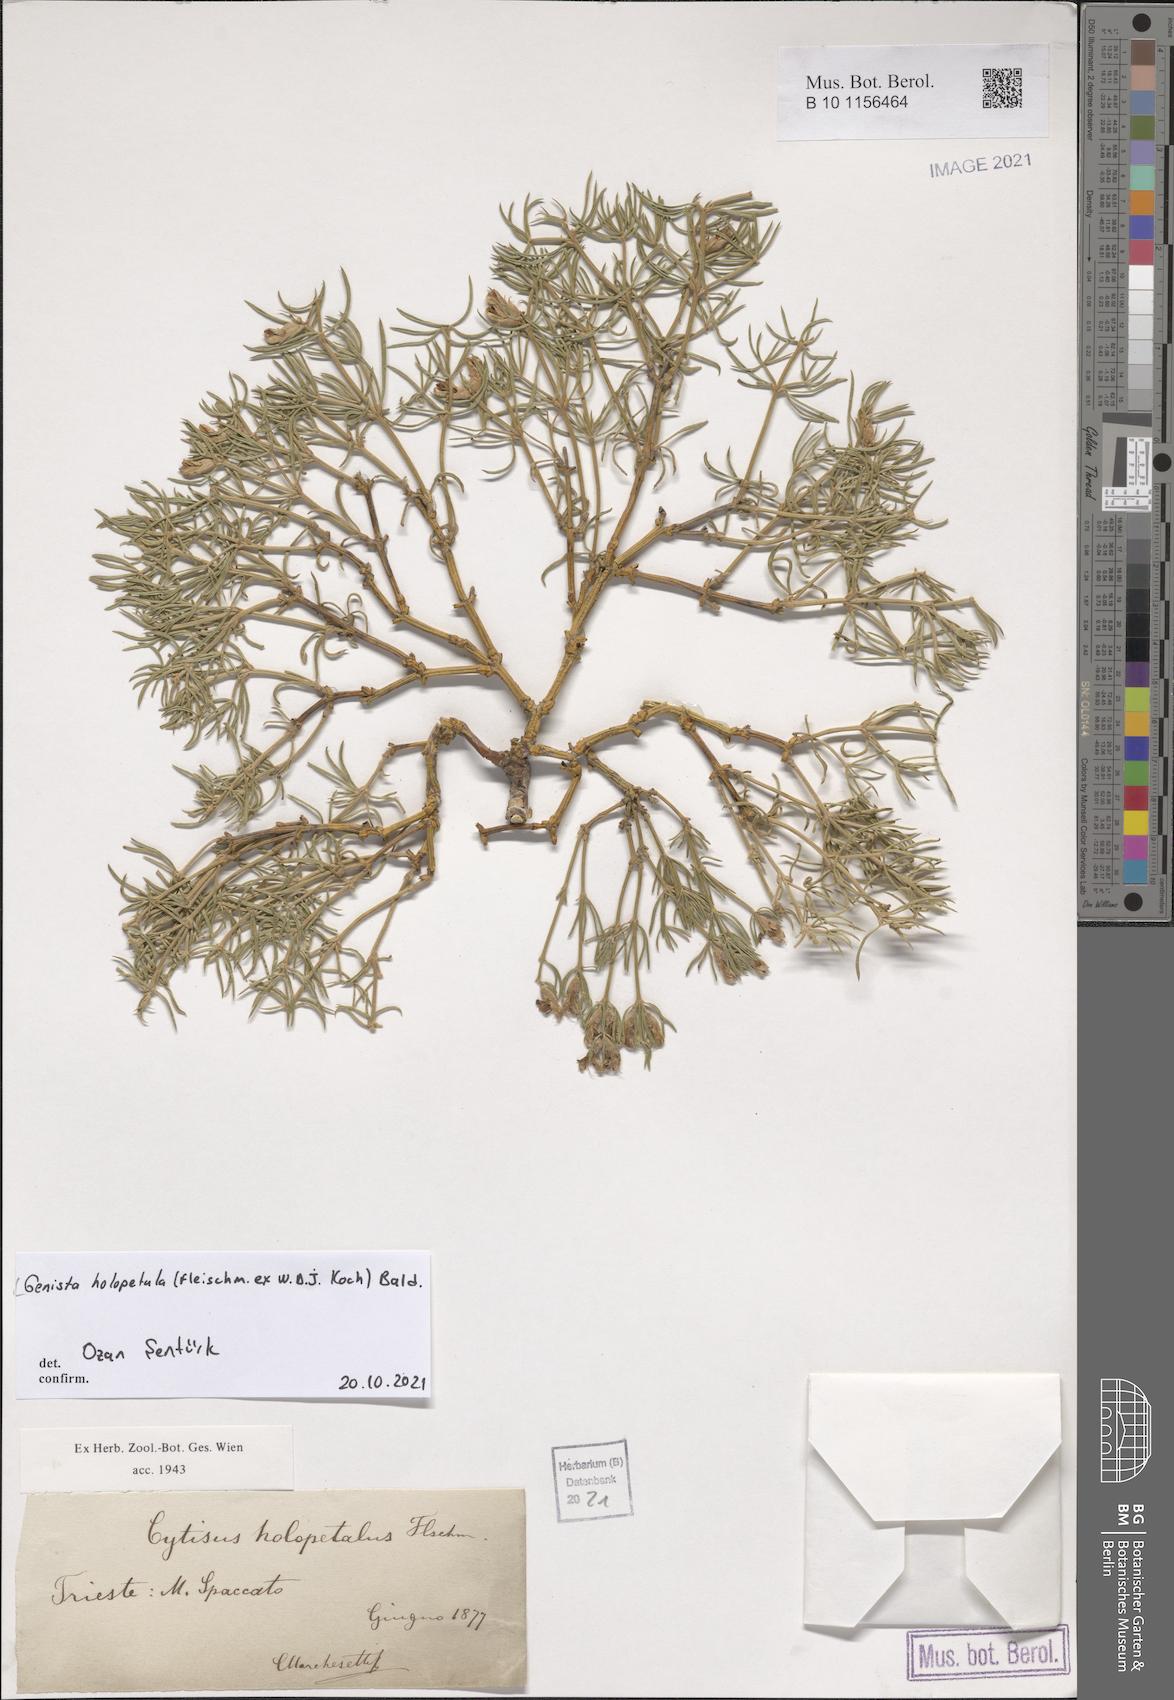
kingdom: Plantae
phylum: Tracheophyta
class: Magnoliopsida
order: Fabales
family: Fabaceae
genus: Genista
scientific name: Genista holopetala
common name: Entire-petalled gorse
